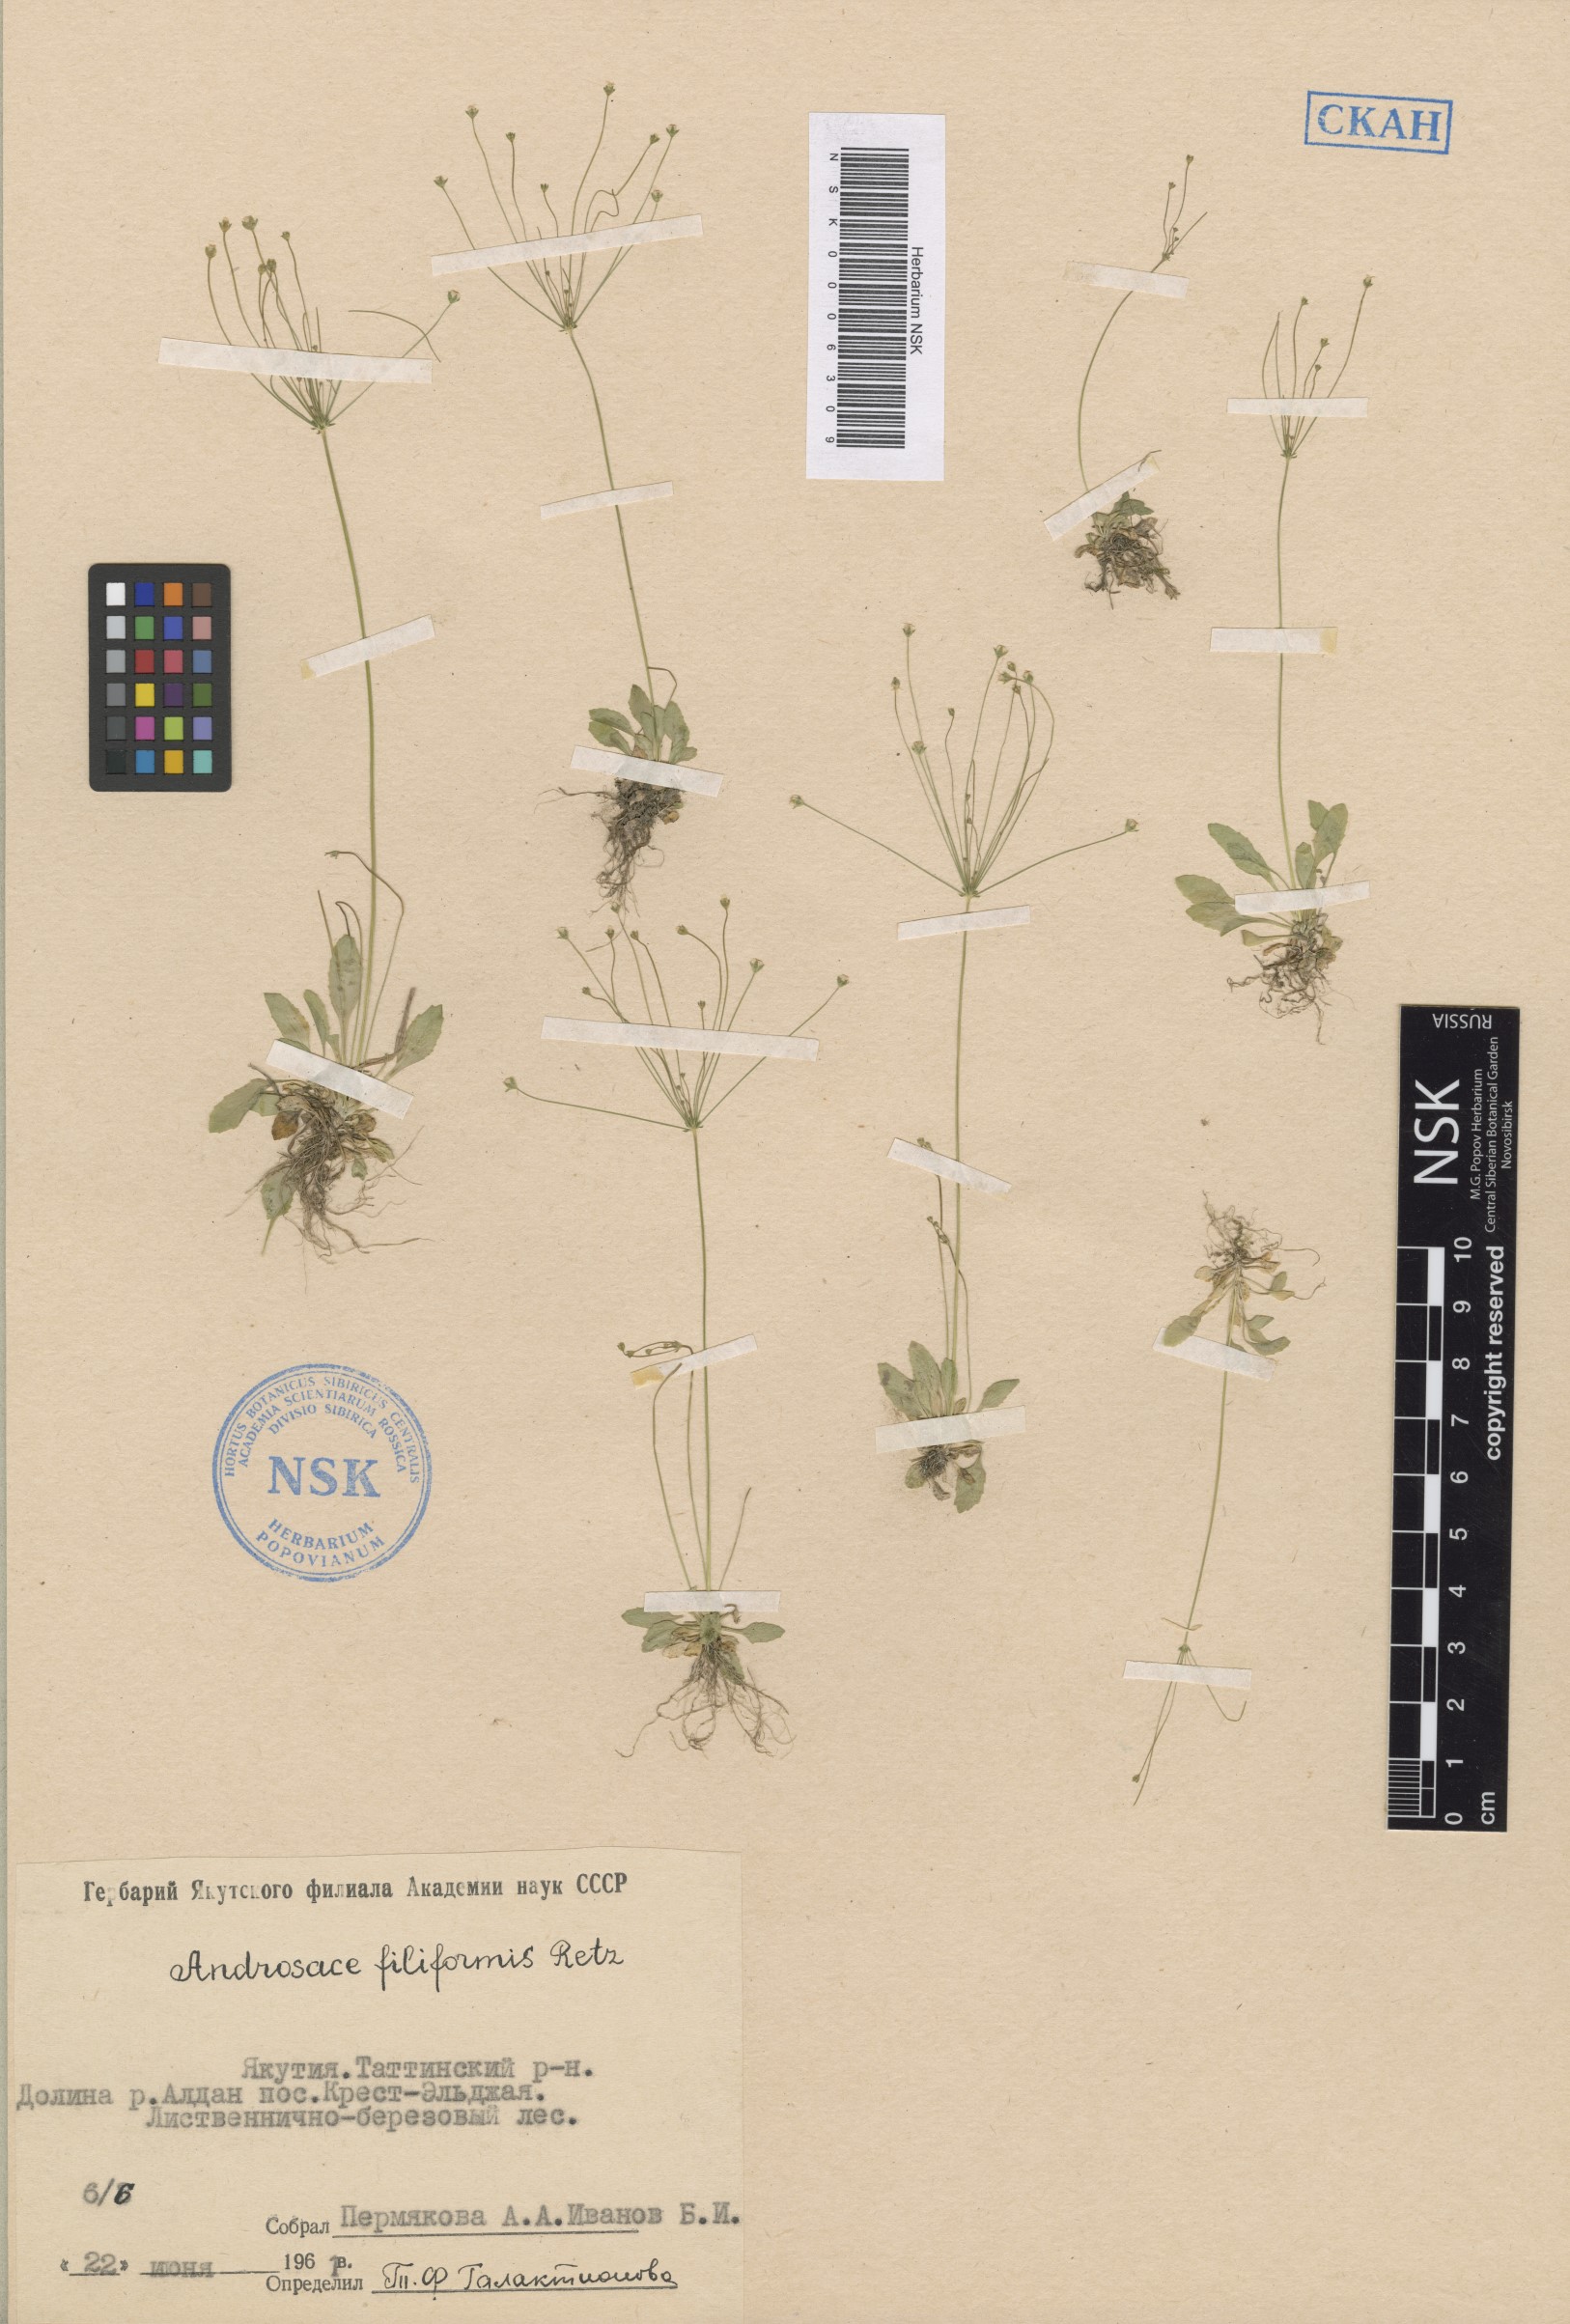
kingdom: Plantae
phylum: Tracheophyta
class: Magnoliopsida
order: Ericales
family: Primulaceae
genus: Androsace
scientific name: Androsace filiformis
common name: Filiform rock jasmine
